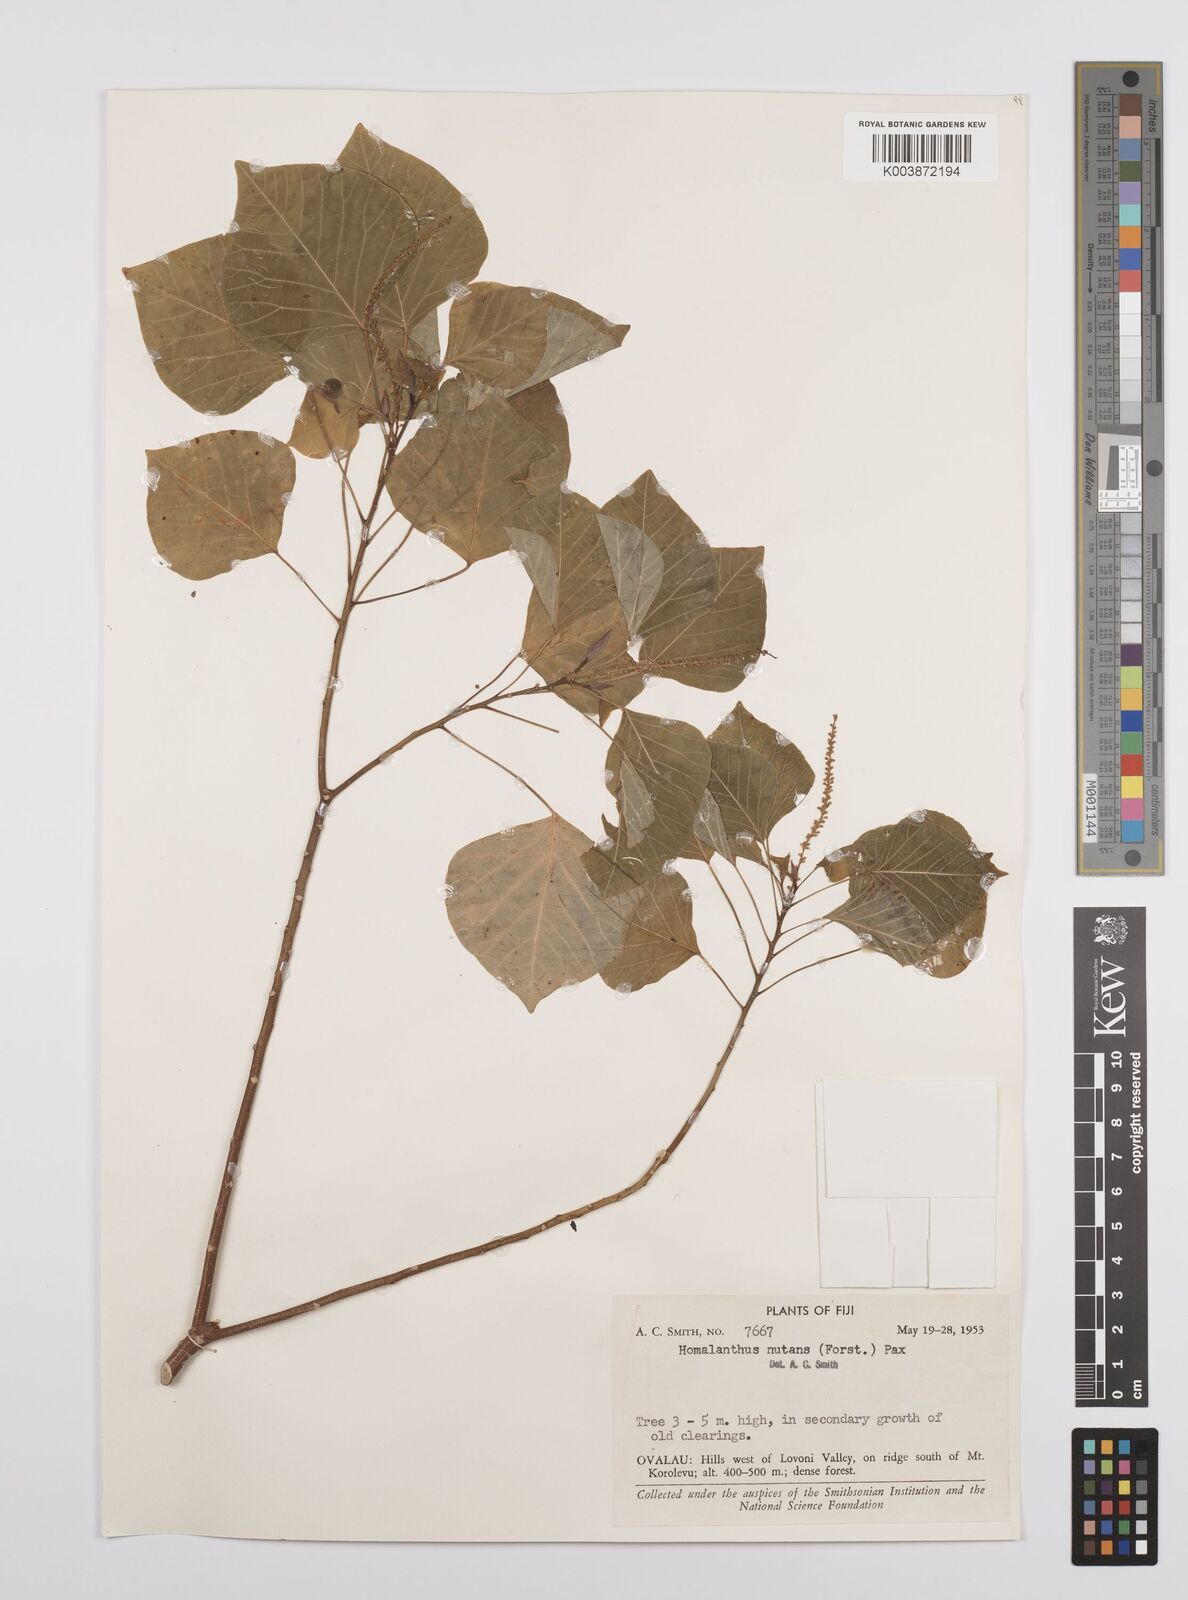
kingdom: Plantae
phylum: Tracheophyta
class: Magnoliopsida
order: Malpighiales
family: Euphorbiaceae
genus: Homalanthus
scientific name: Homalanthus nutans
